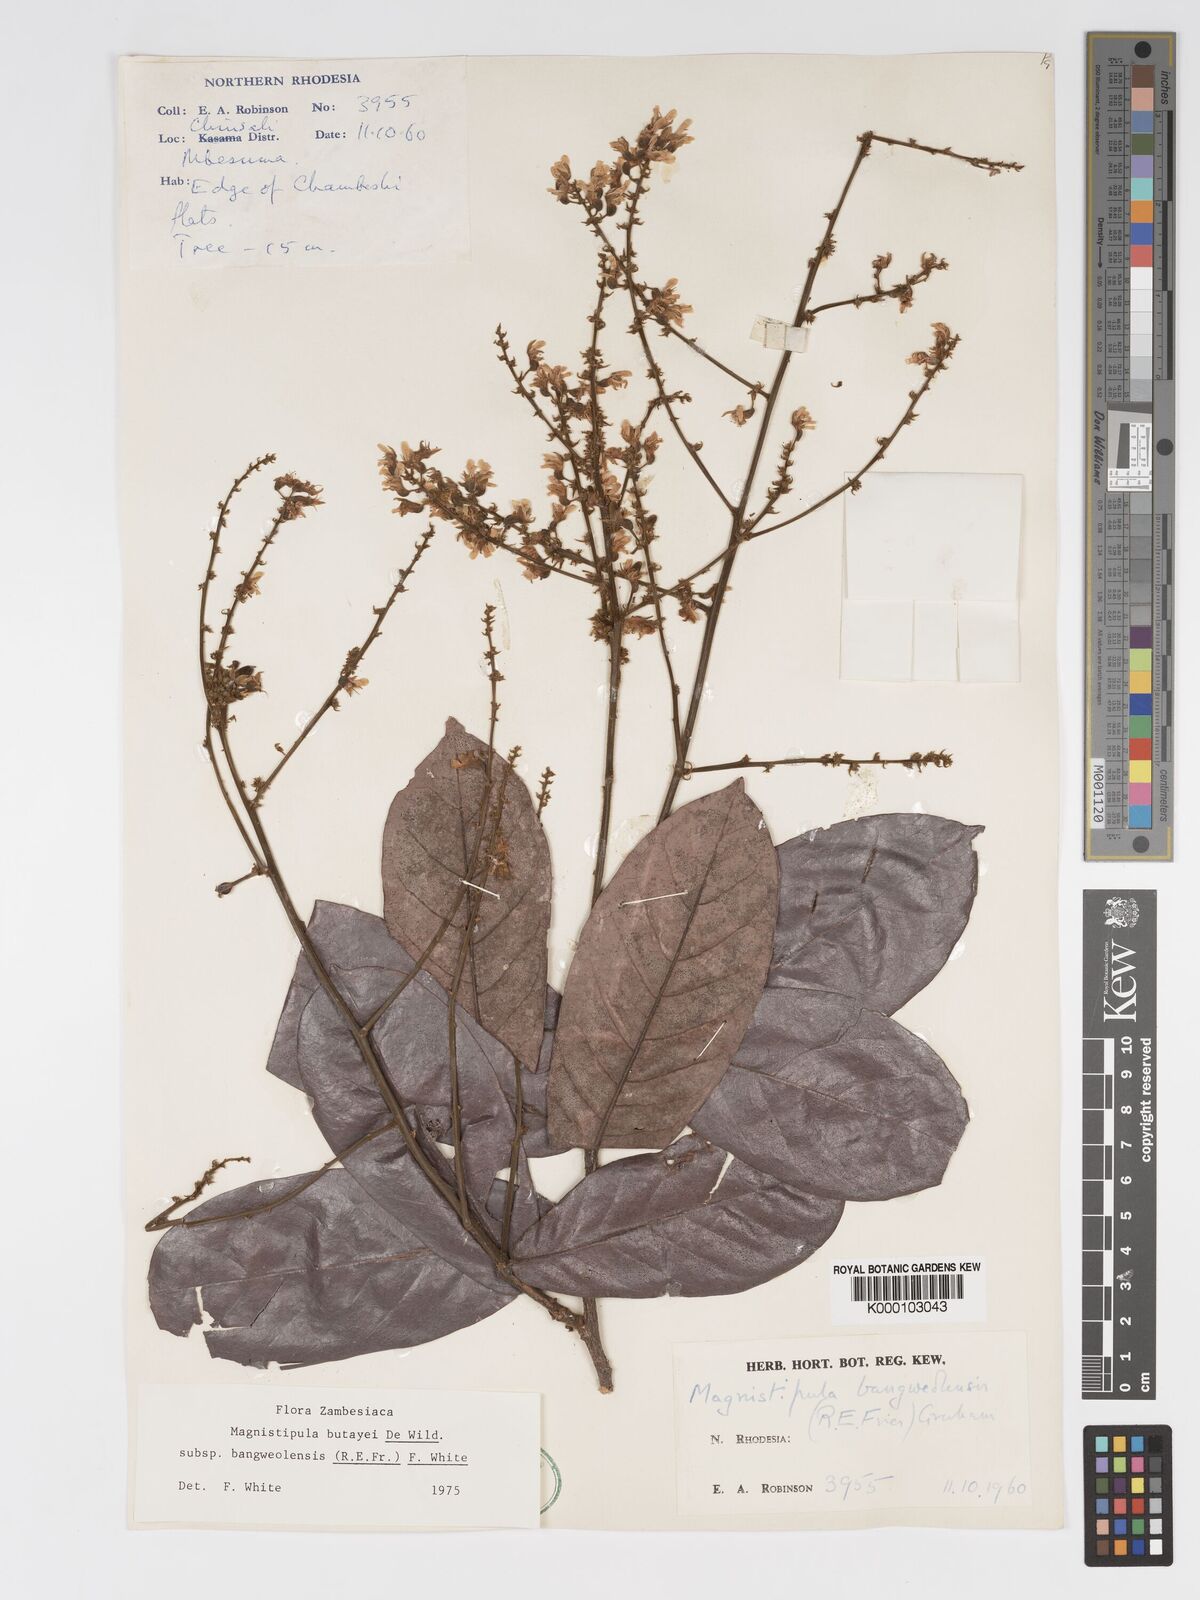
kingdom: Plantae
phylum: Tracheophyta
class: Magnoliopsida
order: Malpighiales
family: Chrysobalanaceae
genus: Magnistipula
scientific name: Magnistipula butayei
